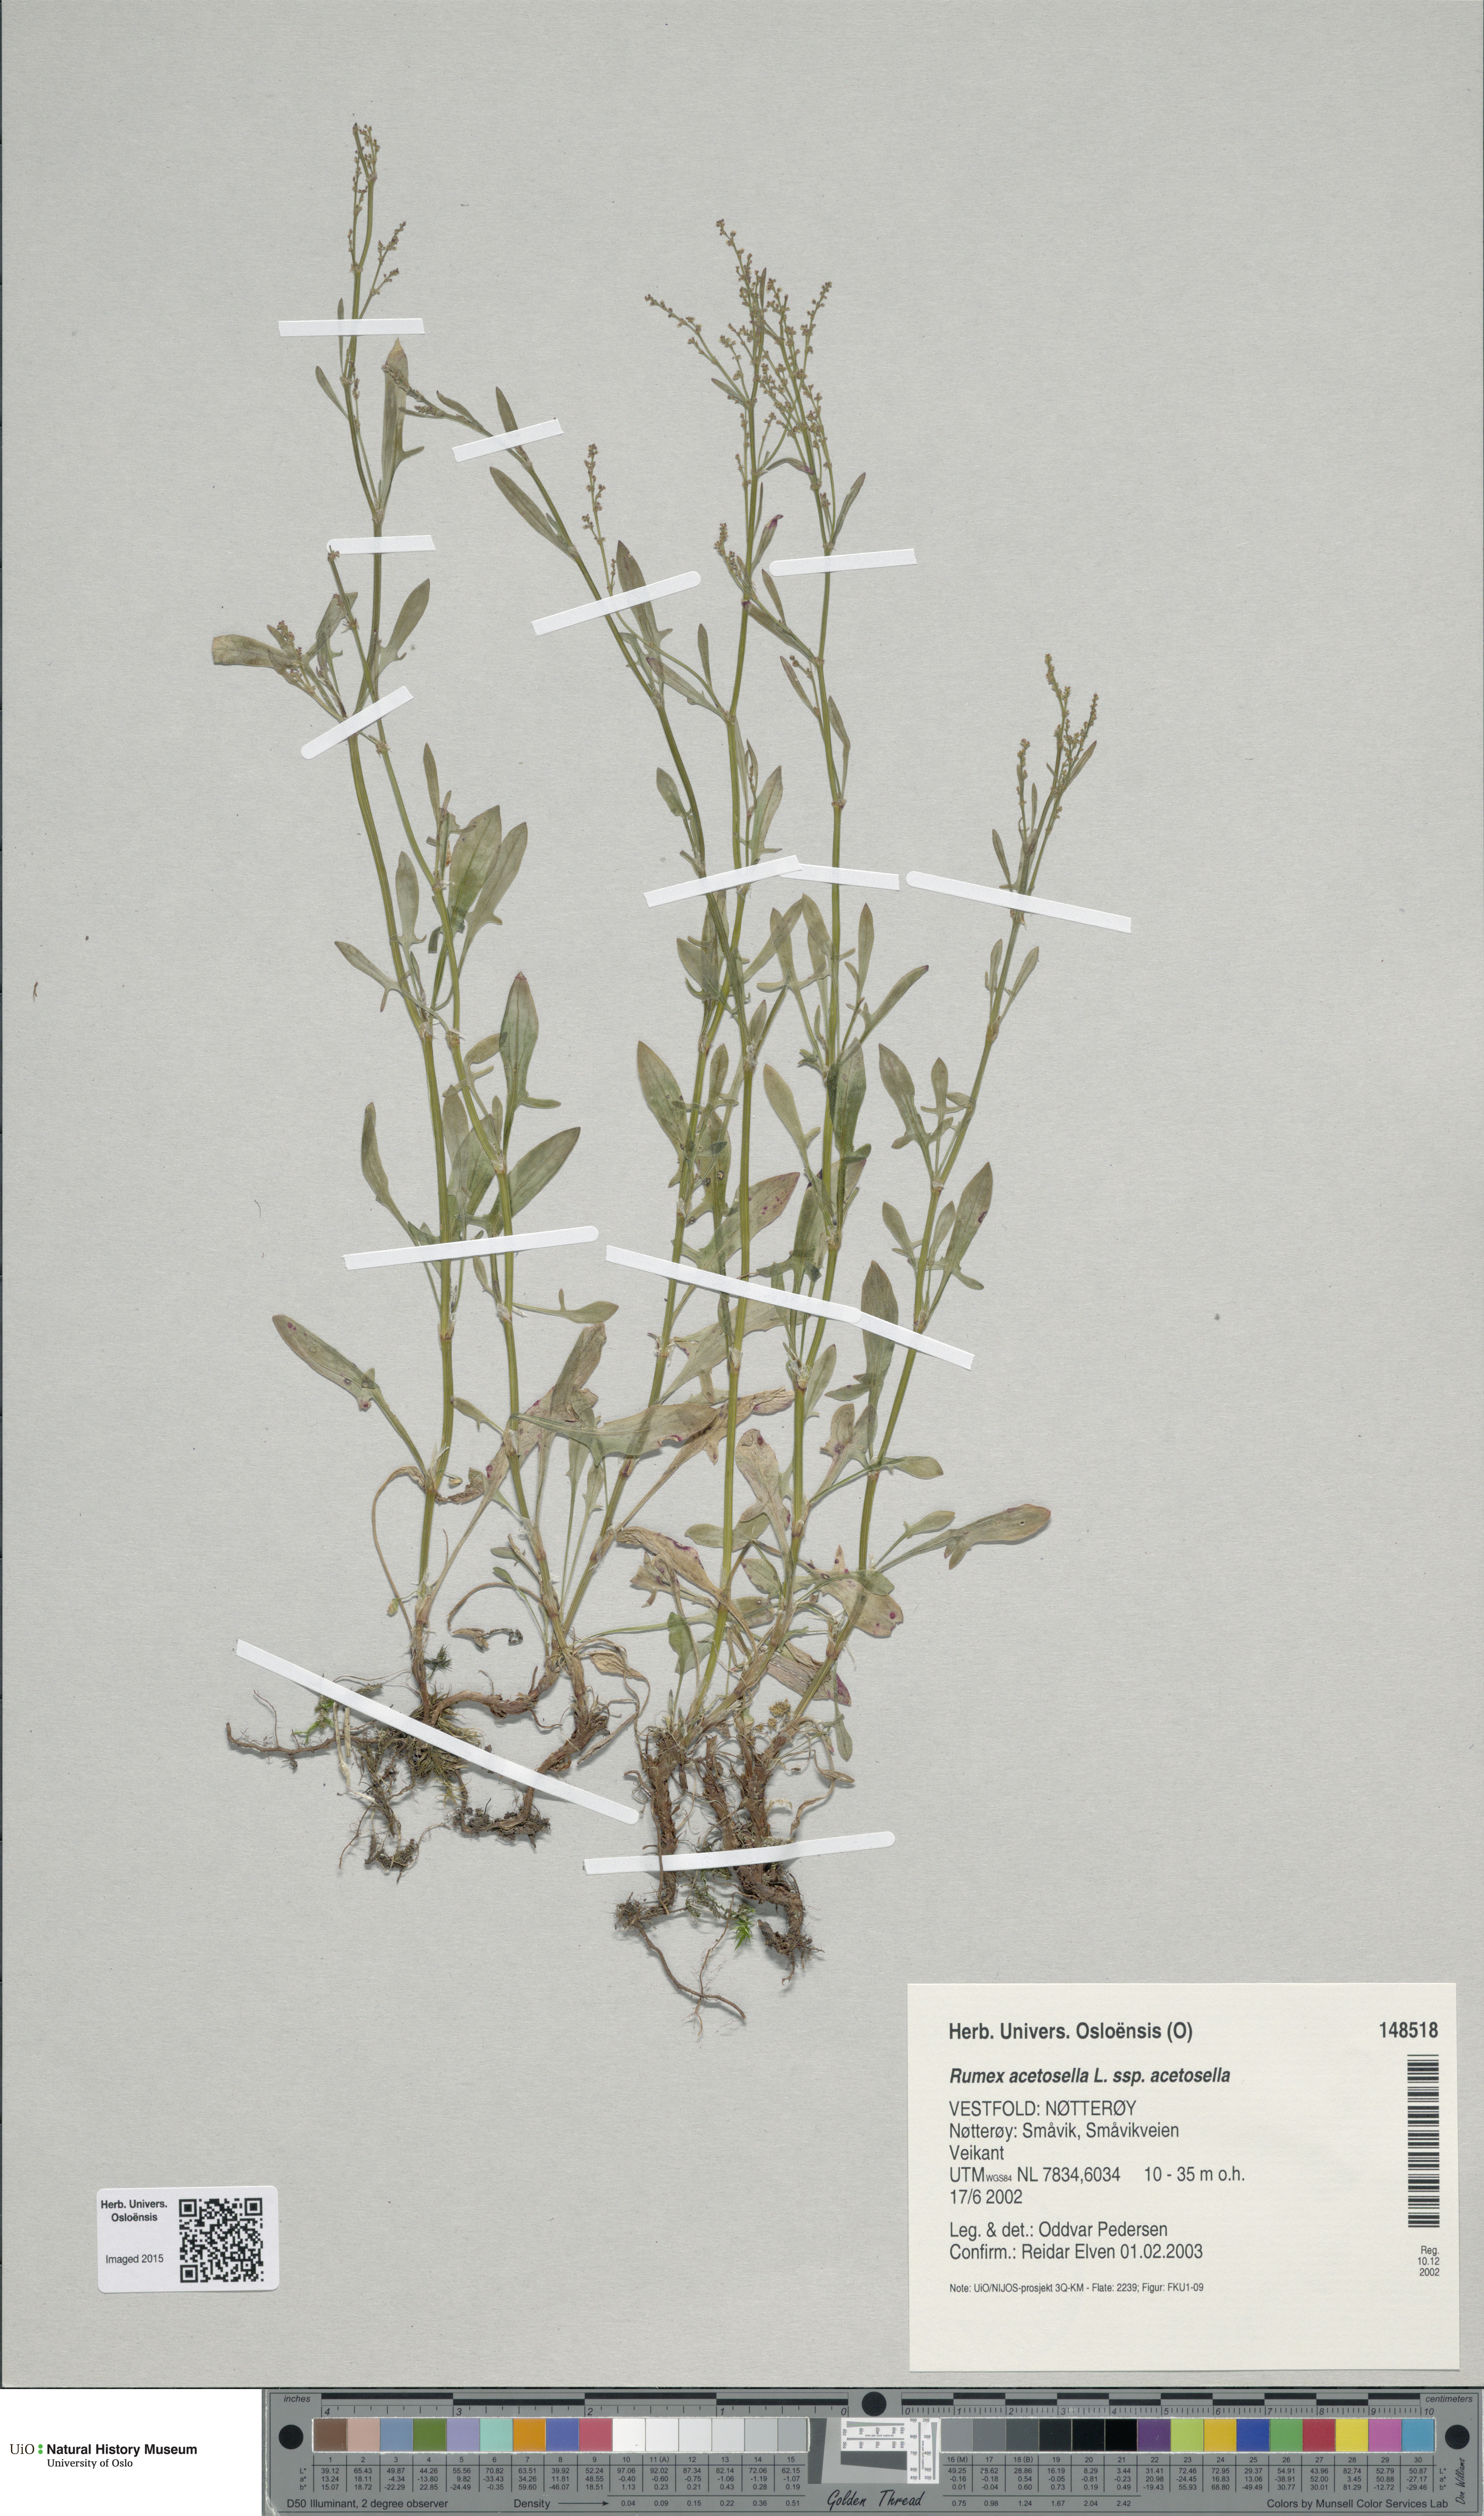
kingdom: Plantae
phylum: Tracheophyta
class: Magnoliopsida
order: Caryophyllales
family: Polygonaceae
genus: Rumex
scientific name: Rumex acetosella
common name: Common sheep sorrel
